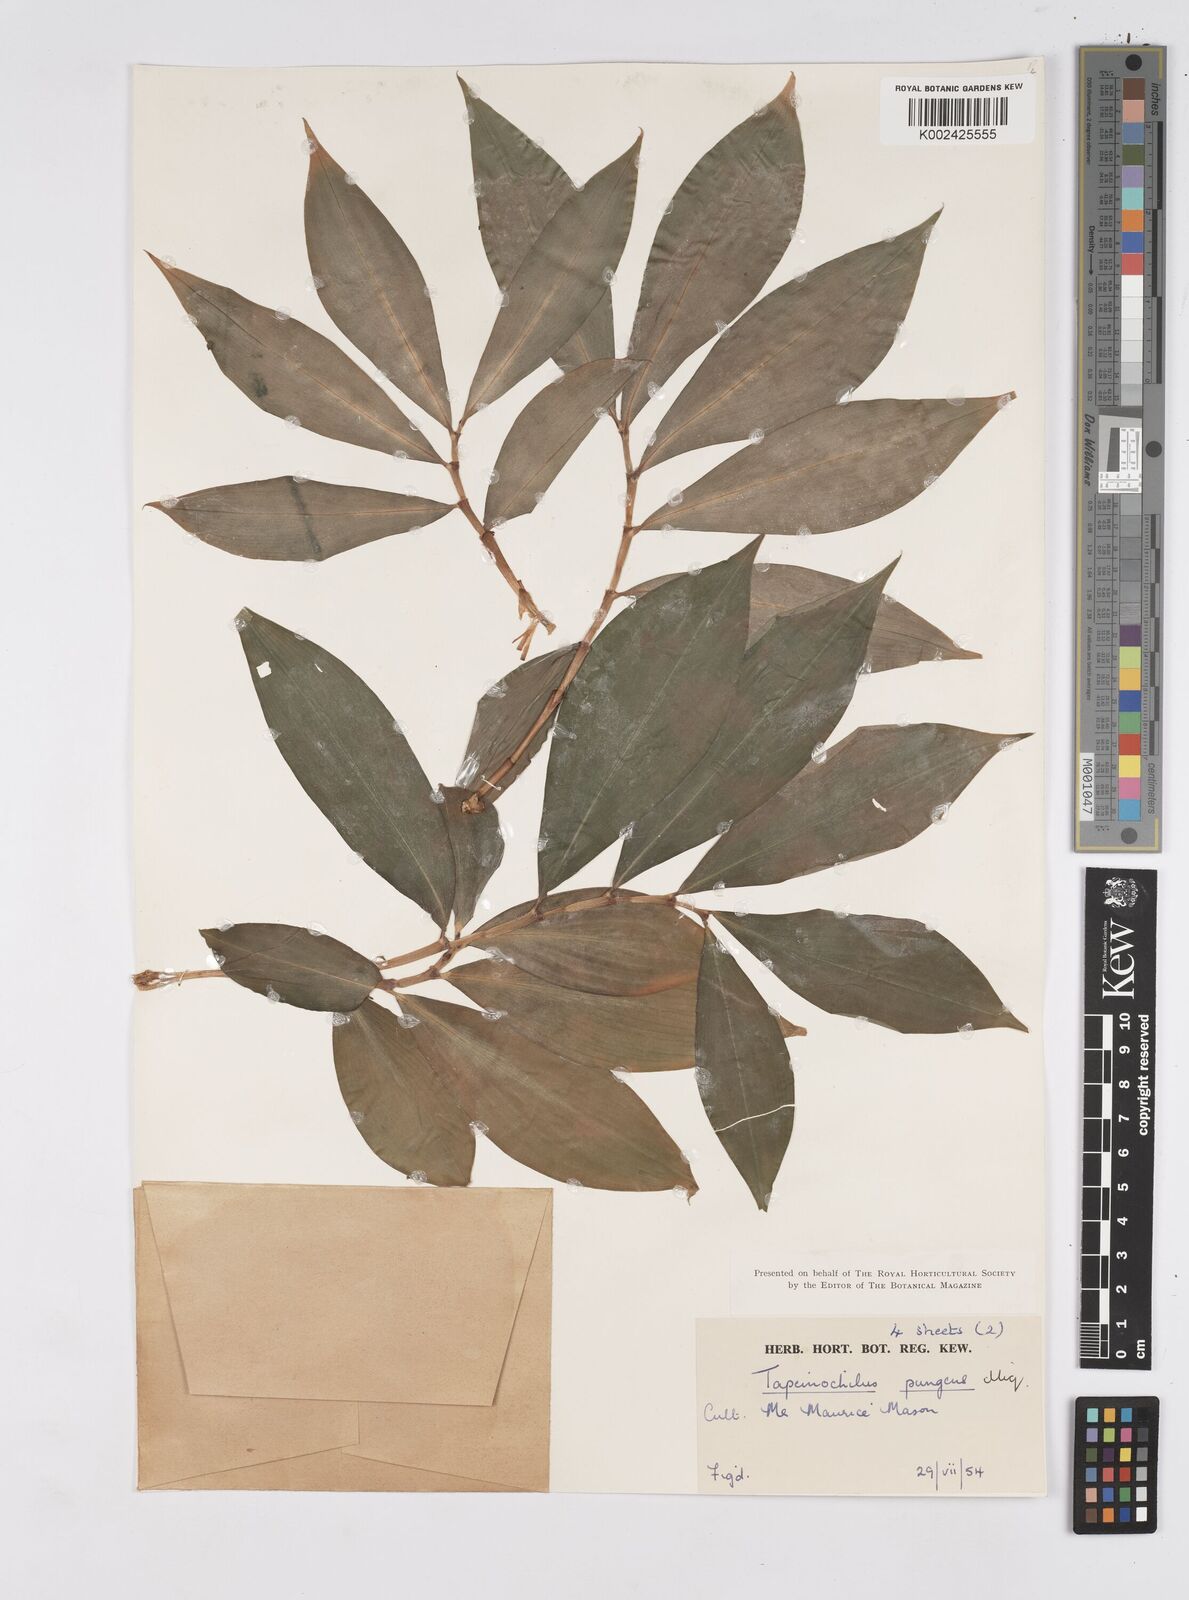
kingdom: Plantae
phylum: Tracheophyta
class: Liliopsida
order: Zingiberales
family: Costaceae
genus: Tapeinochilos
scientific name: Tapeinochilos ananassae
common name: Torch-ginger
